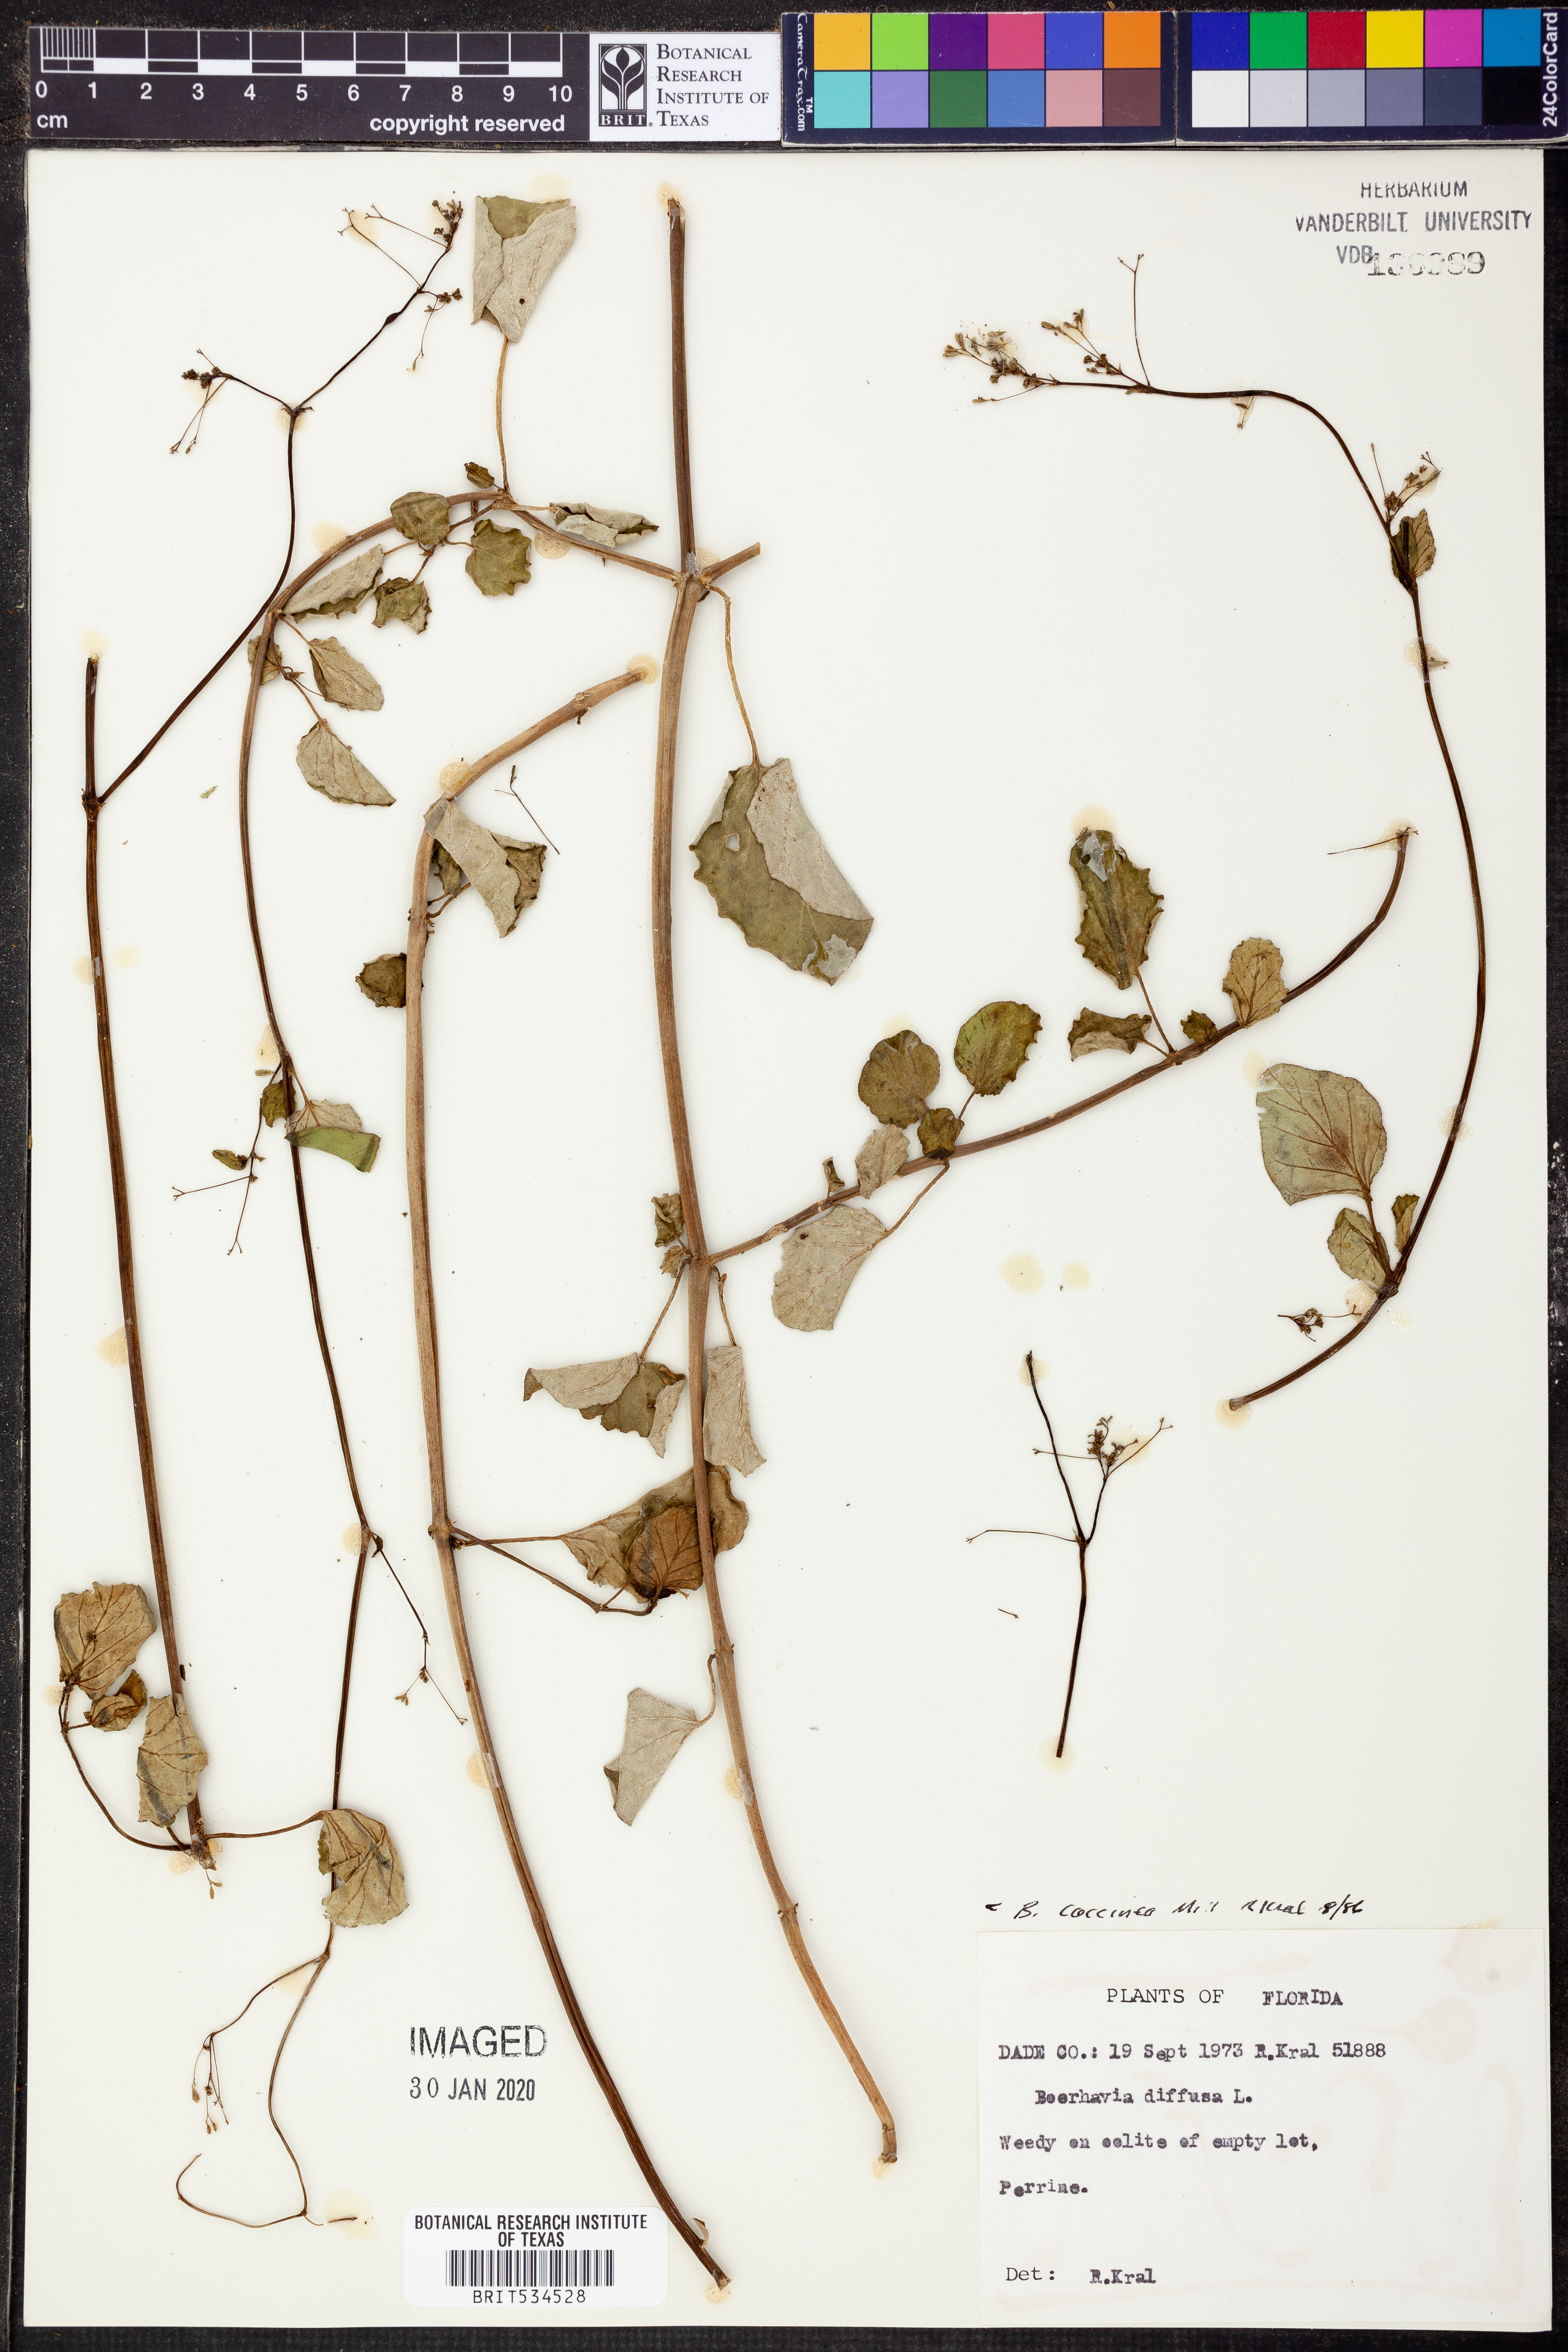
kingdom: Plantae
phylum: Tracheophyta
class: Magnoliopsida
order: Caryophyllales
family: Nyctaginaceae
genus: Boerhavia
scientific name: Boerhavia coccinea
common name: Scarlet spiderling
